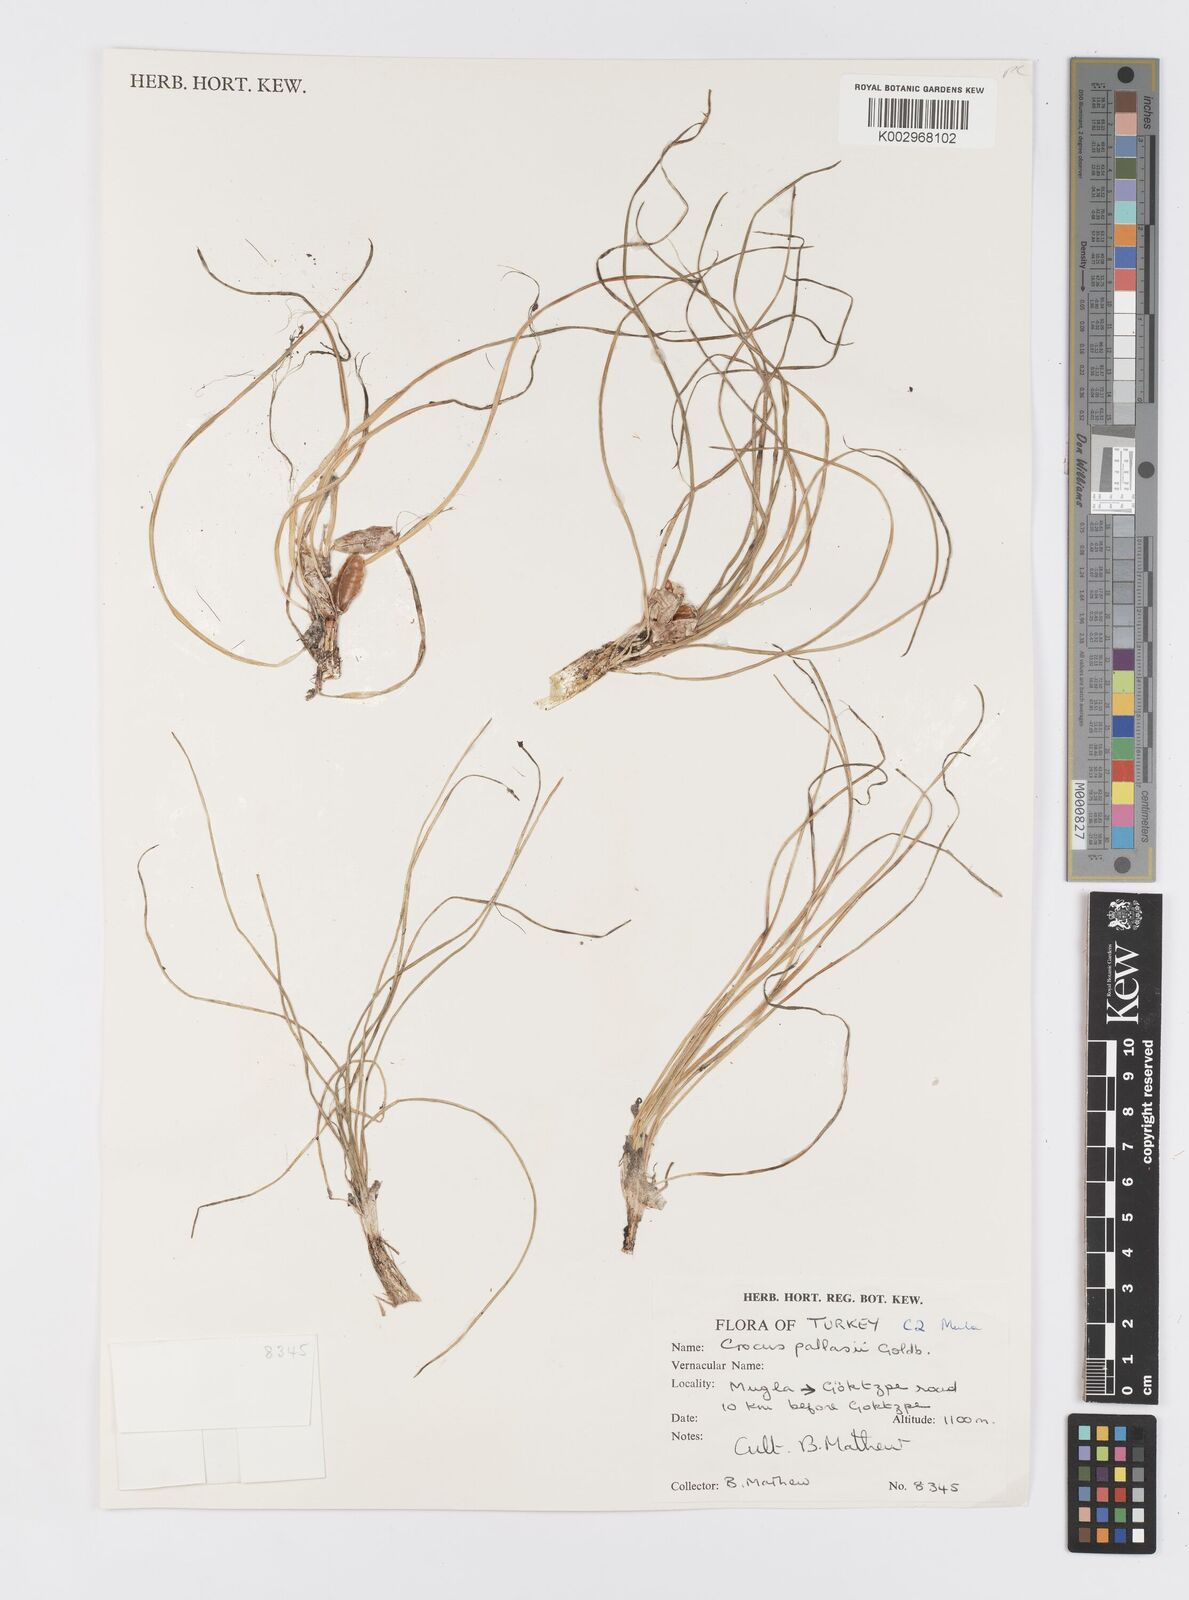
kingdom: Plantae
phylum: Tracheophyta
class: Liliopsida
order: Asparagales
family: Iridaceae
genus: Crocus
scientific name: Crocus
